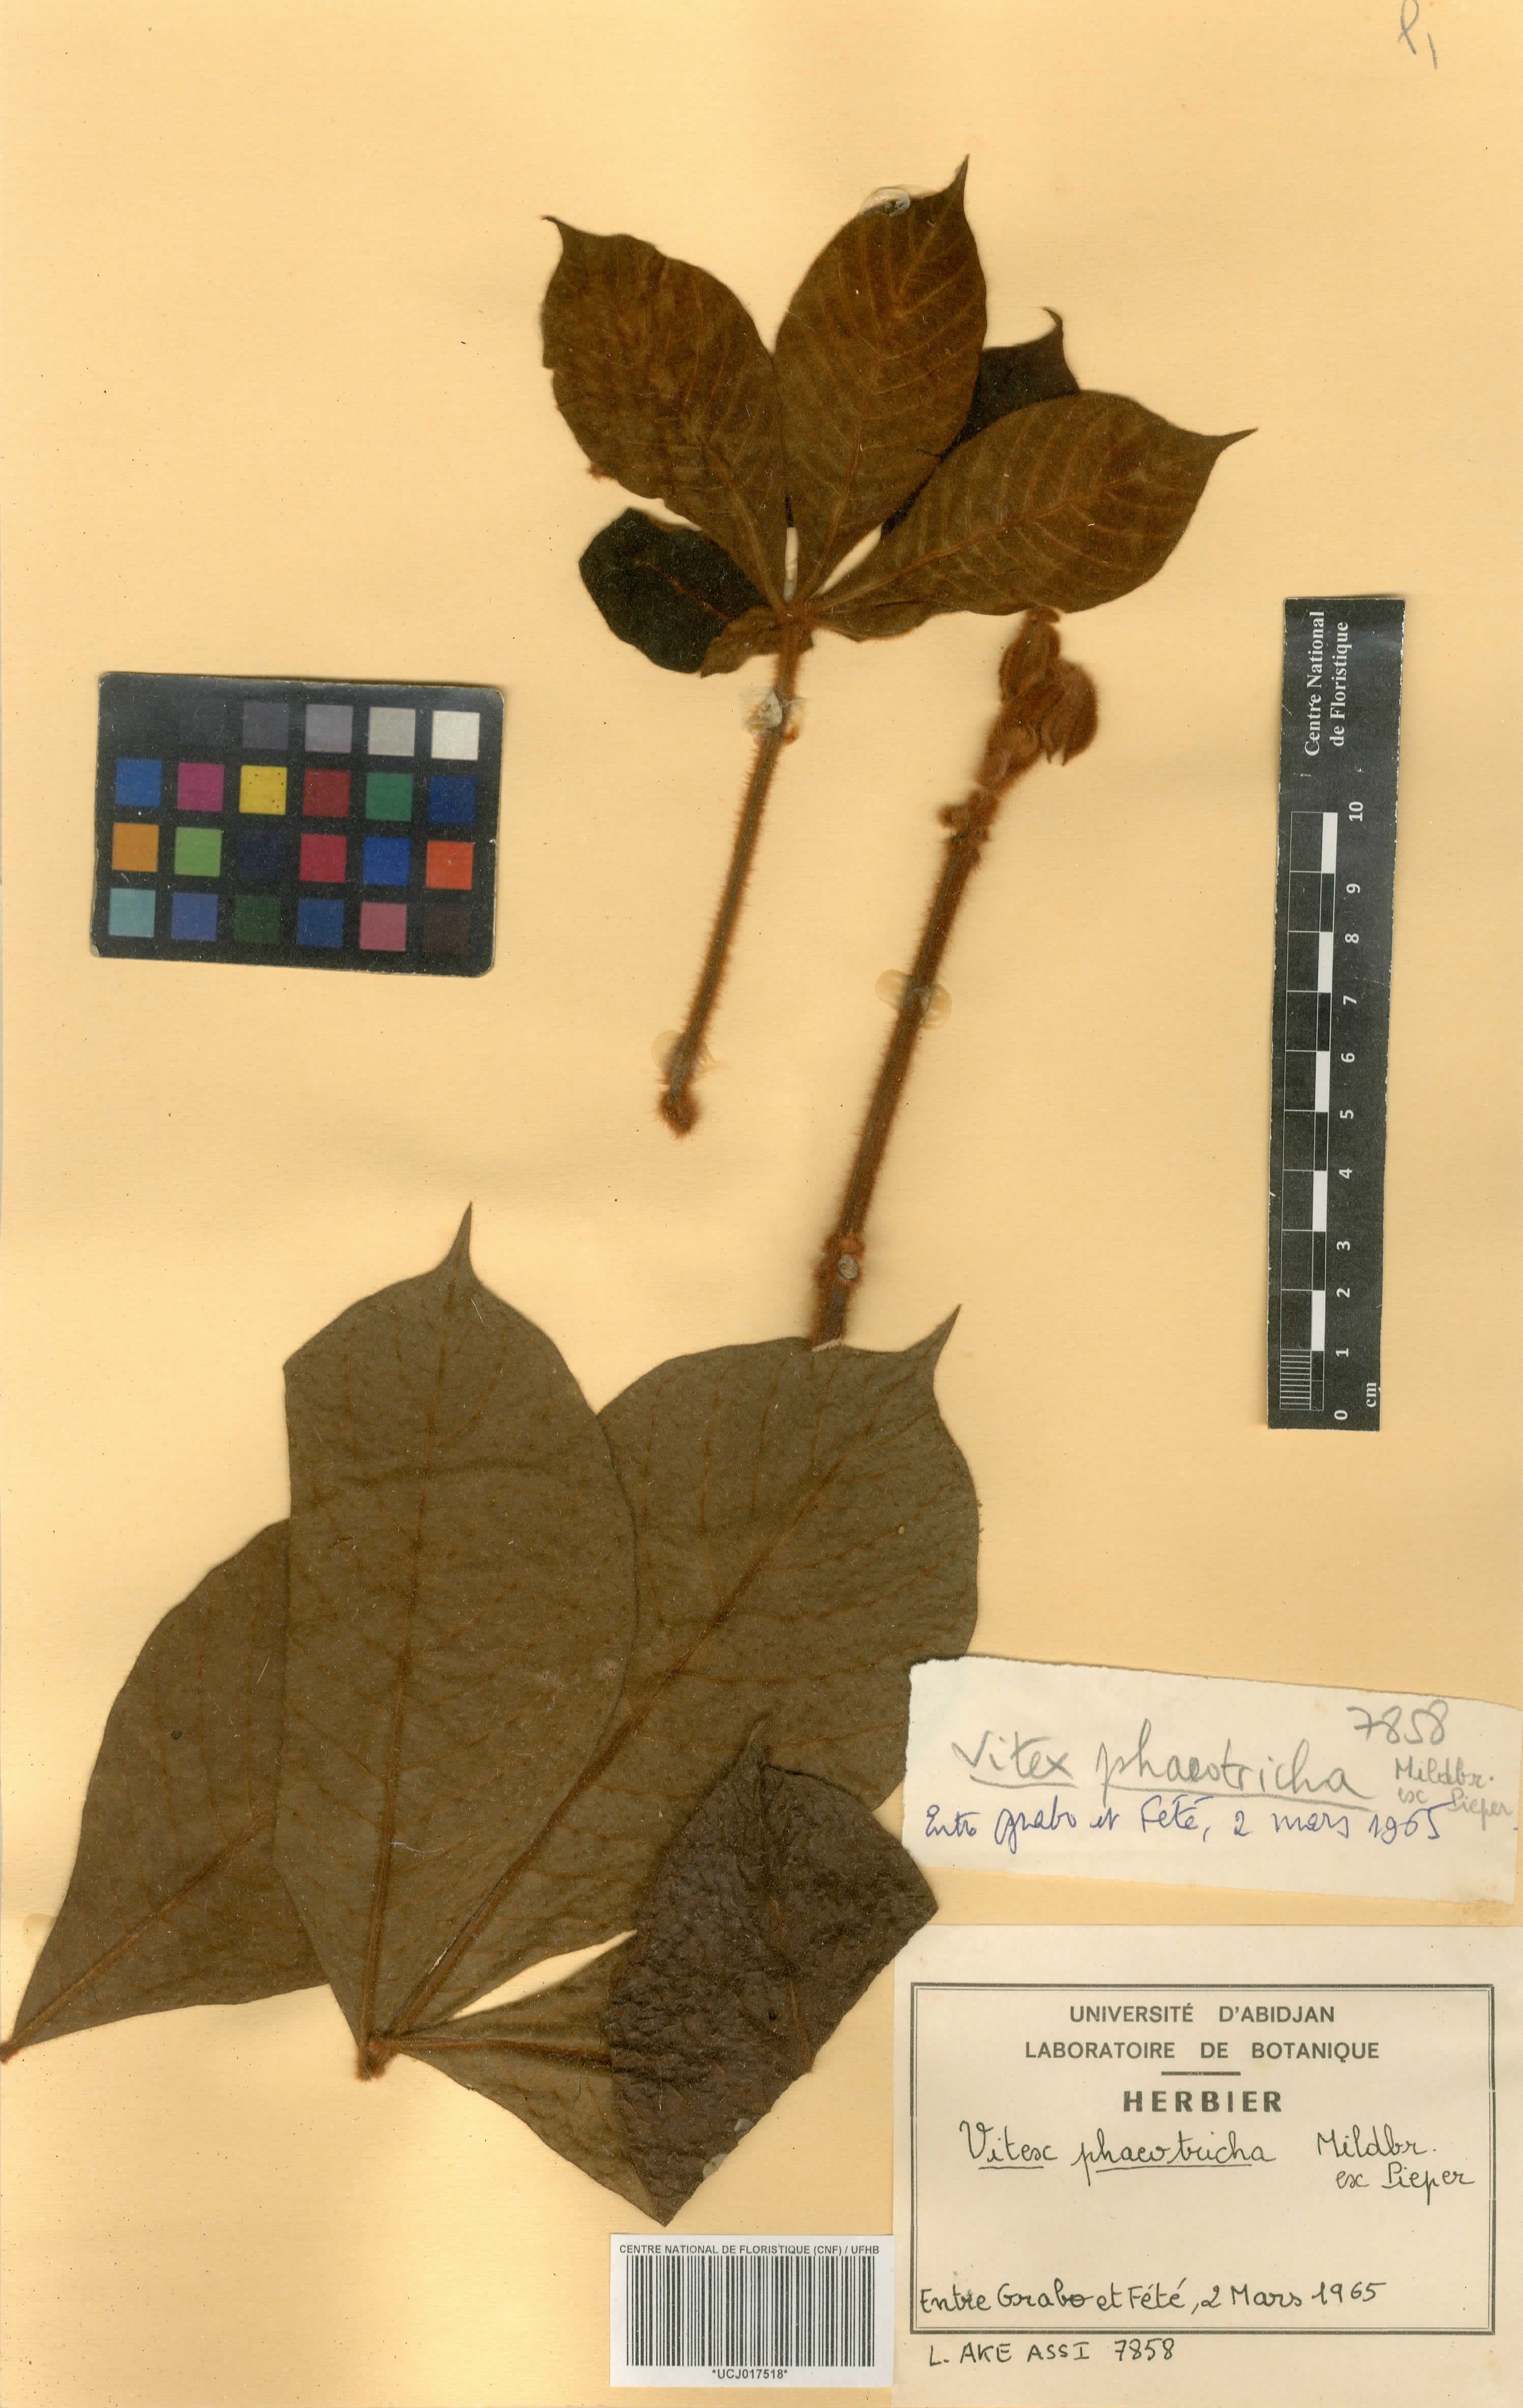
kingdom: Plantae
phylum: Tracheophyta
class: Magnoliopsida
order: Lamiales
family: Lamiaceae
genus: Vitex
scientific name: Vitex congolensis
